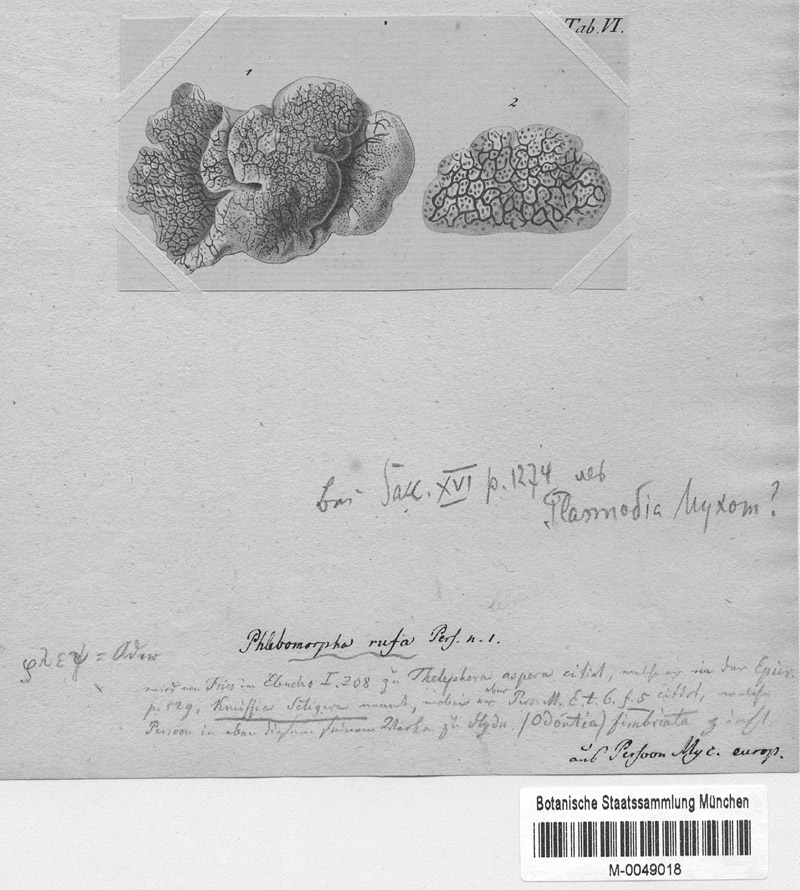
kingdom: Protozoa
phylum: Mycetozoa
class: Myxomycetes
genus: Phlebomorpha
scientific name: Phlebomorpha
